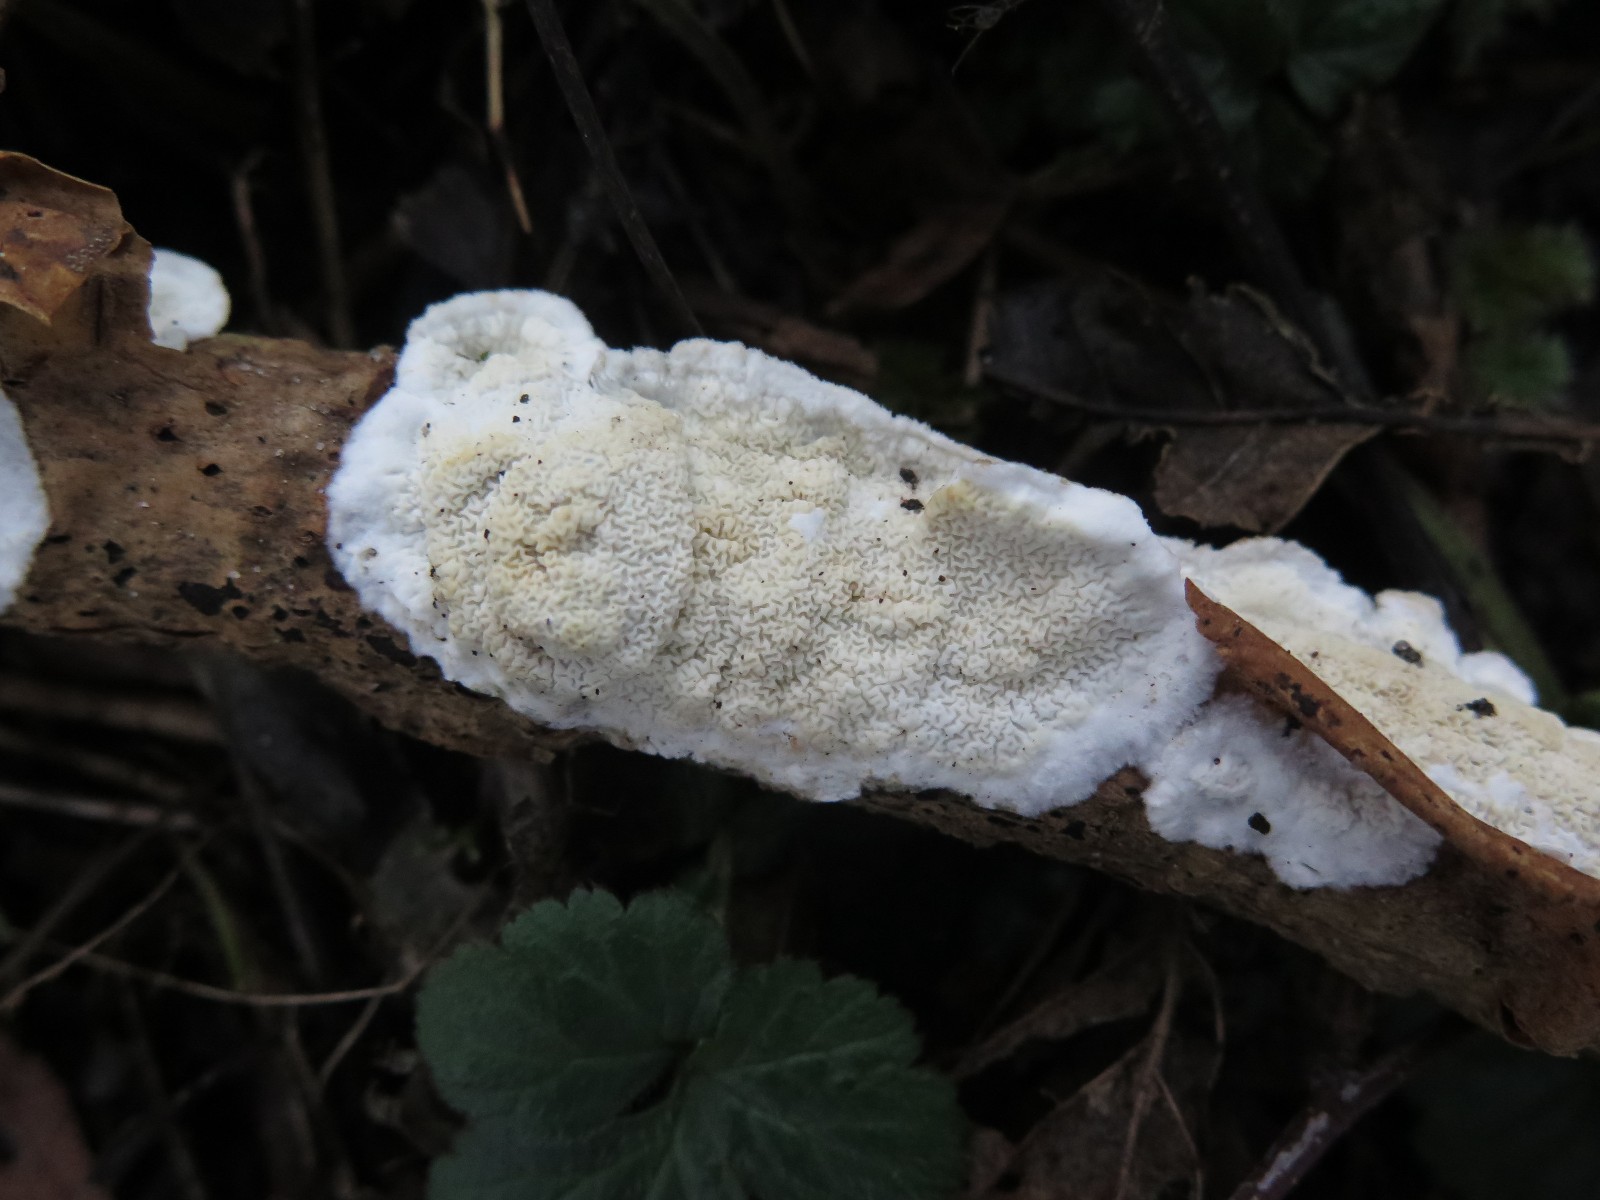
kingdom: Fungi
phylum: Basidiomycota
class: Agaricomycetes
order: Polyporales
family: Irpicaceae
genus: Byssomerulius
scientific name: Byssomerulius corium
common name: læder-åresvamp
